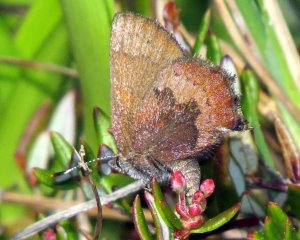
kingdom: Animalia
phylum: Arthropoda
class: Insecta
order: Lepidoptera
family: Lycaenidae
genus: Incisalia
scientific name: Incisalia irioides
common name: Brown Elfin
